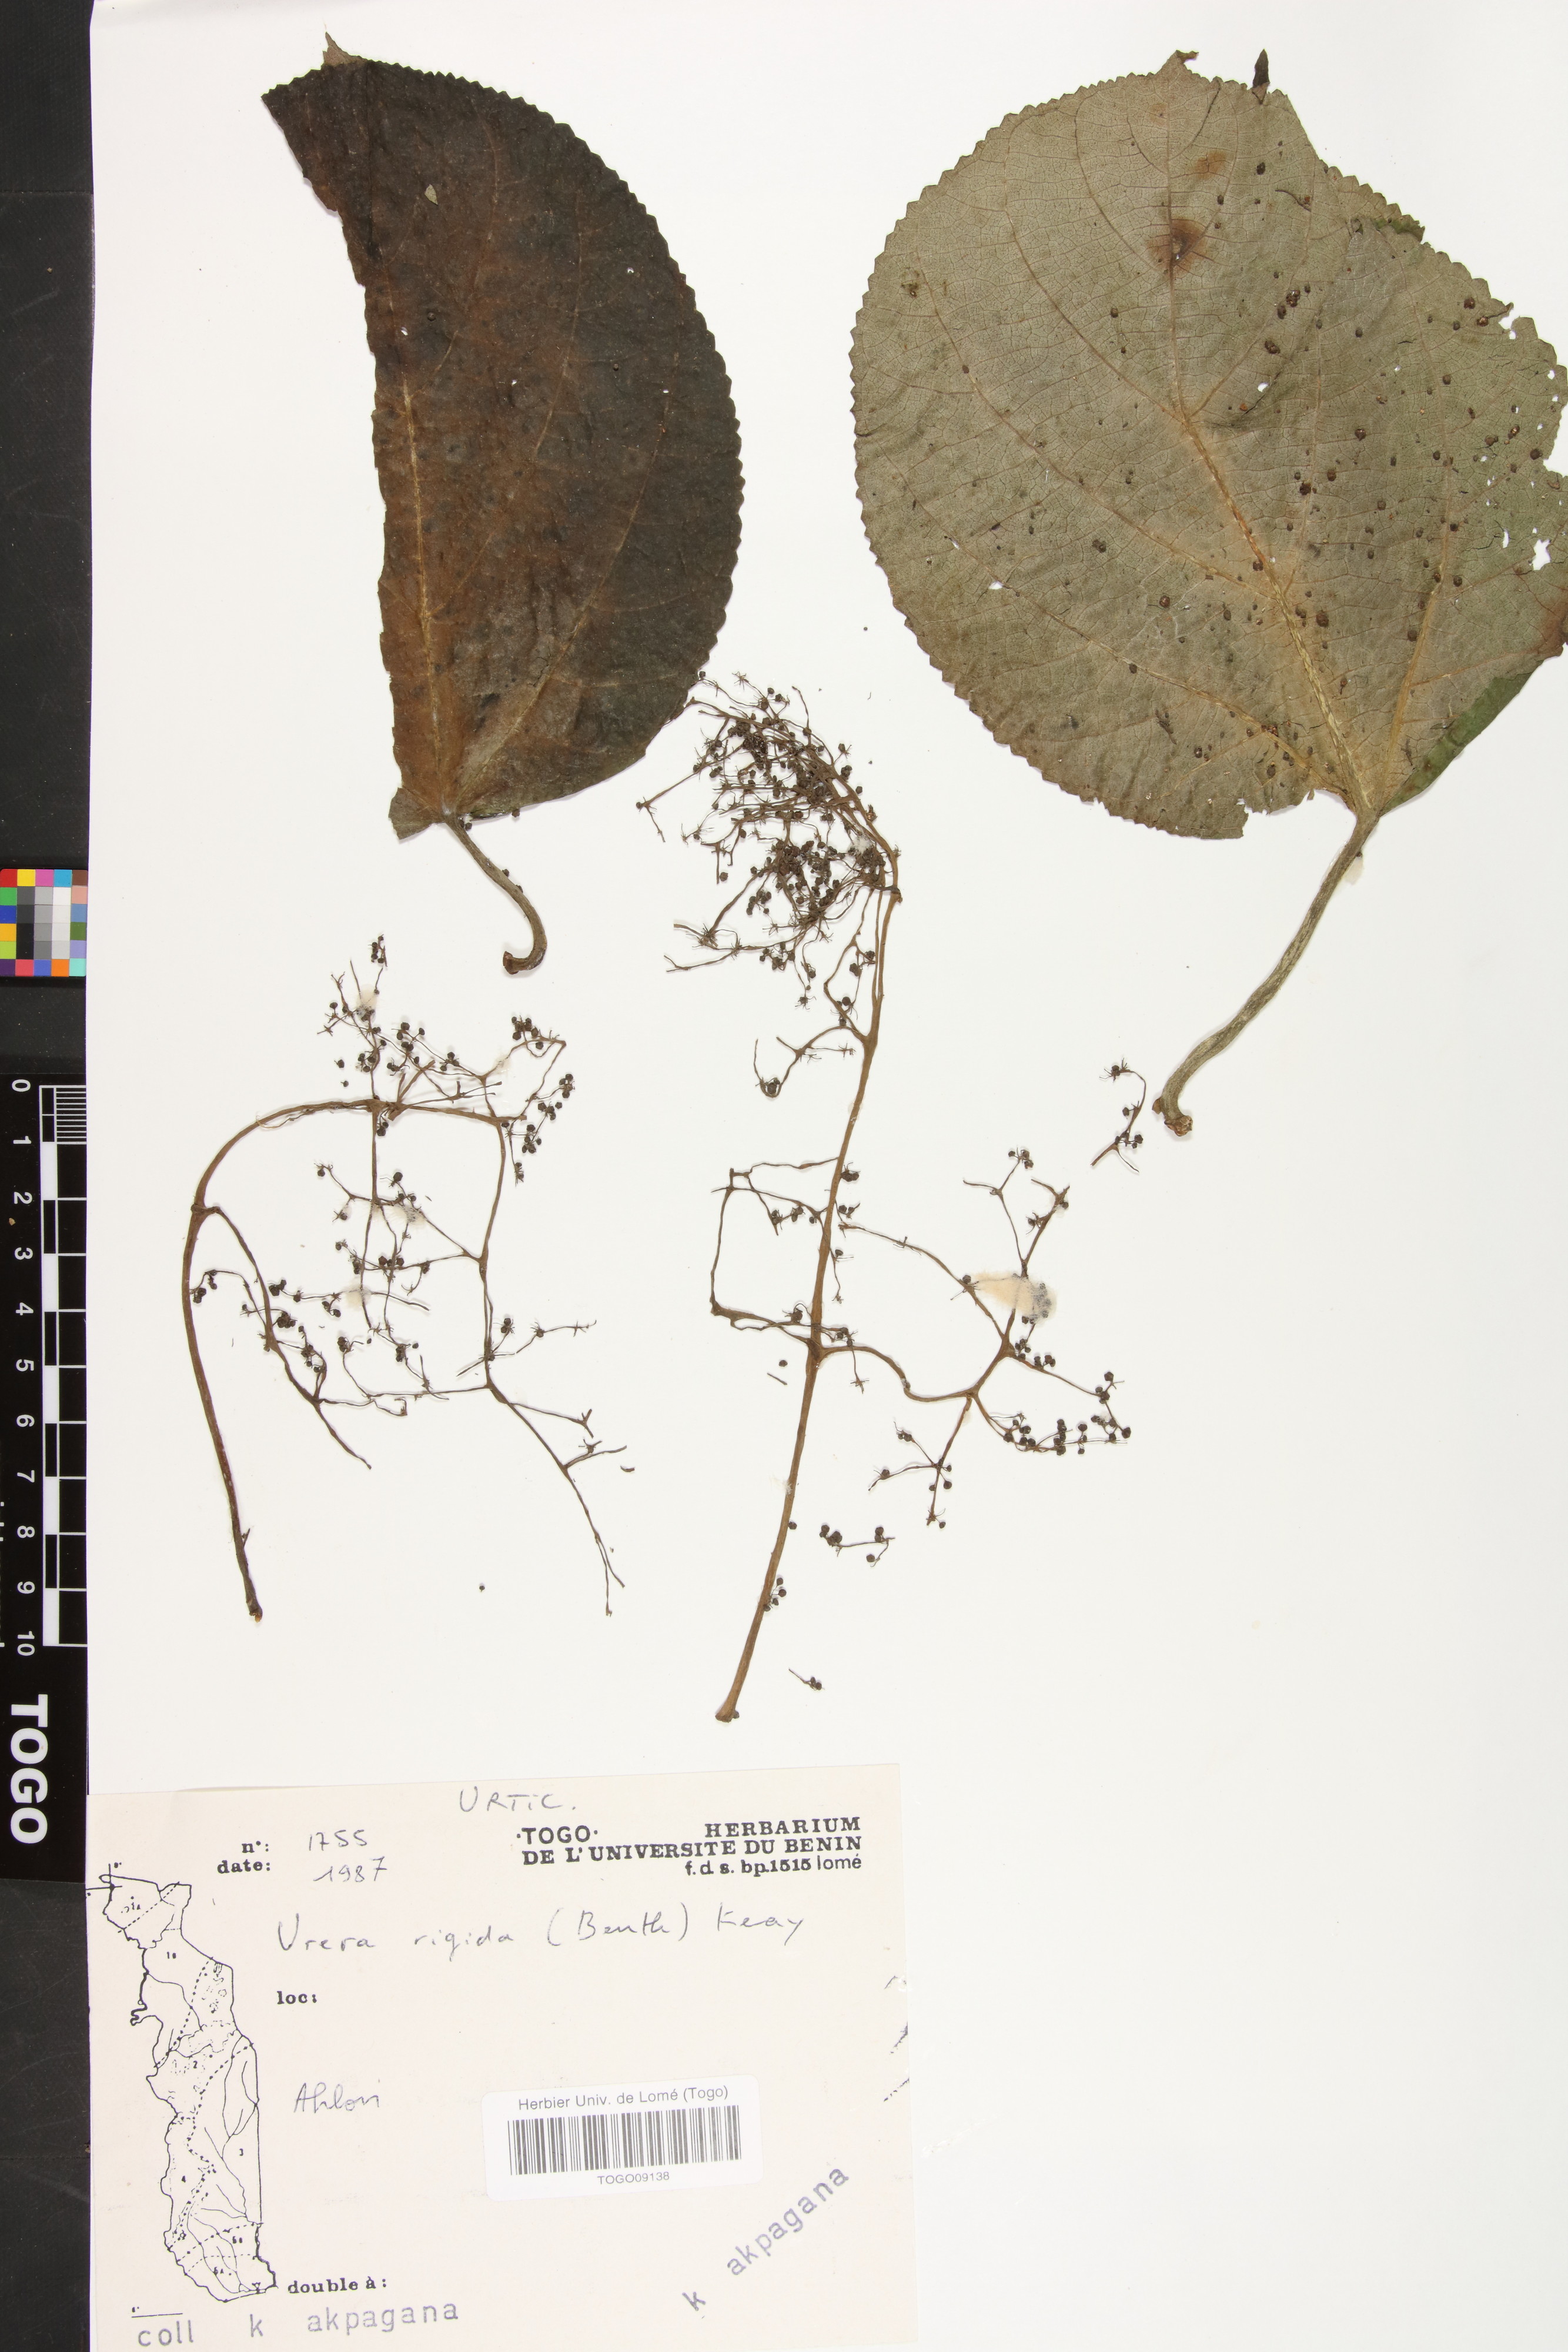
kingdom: Plantae
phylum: Tracheophyta
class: Magnoliopsida
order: Rosales
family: Urticaceae
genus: Scepocarpus
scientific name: Scepocarpus rigidus
